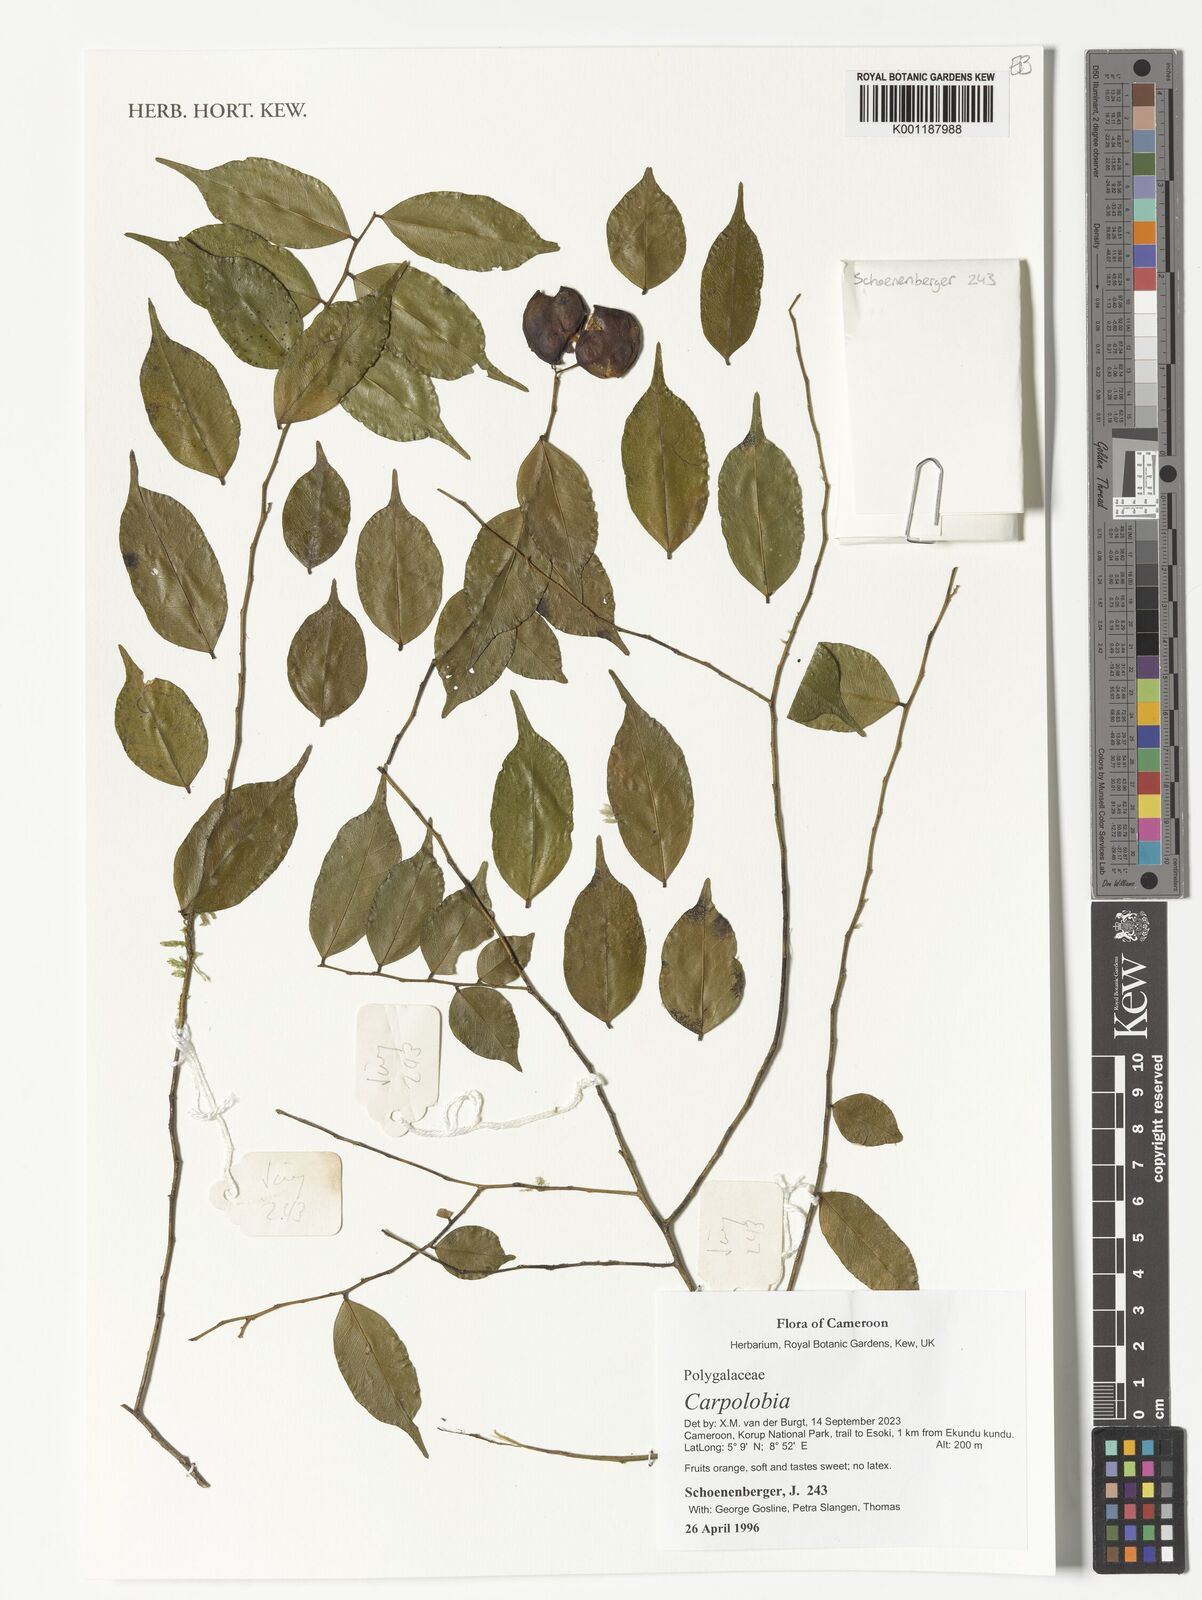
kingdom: Plantae
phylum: Tracheophyta
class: Magnoliopsida
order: Fabales
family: Polygalaceae
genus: Carpolobia
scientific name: Carpolobia
